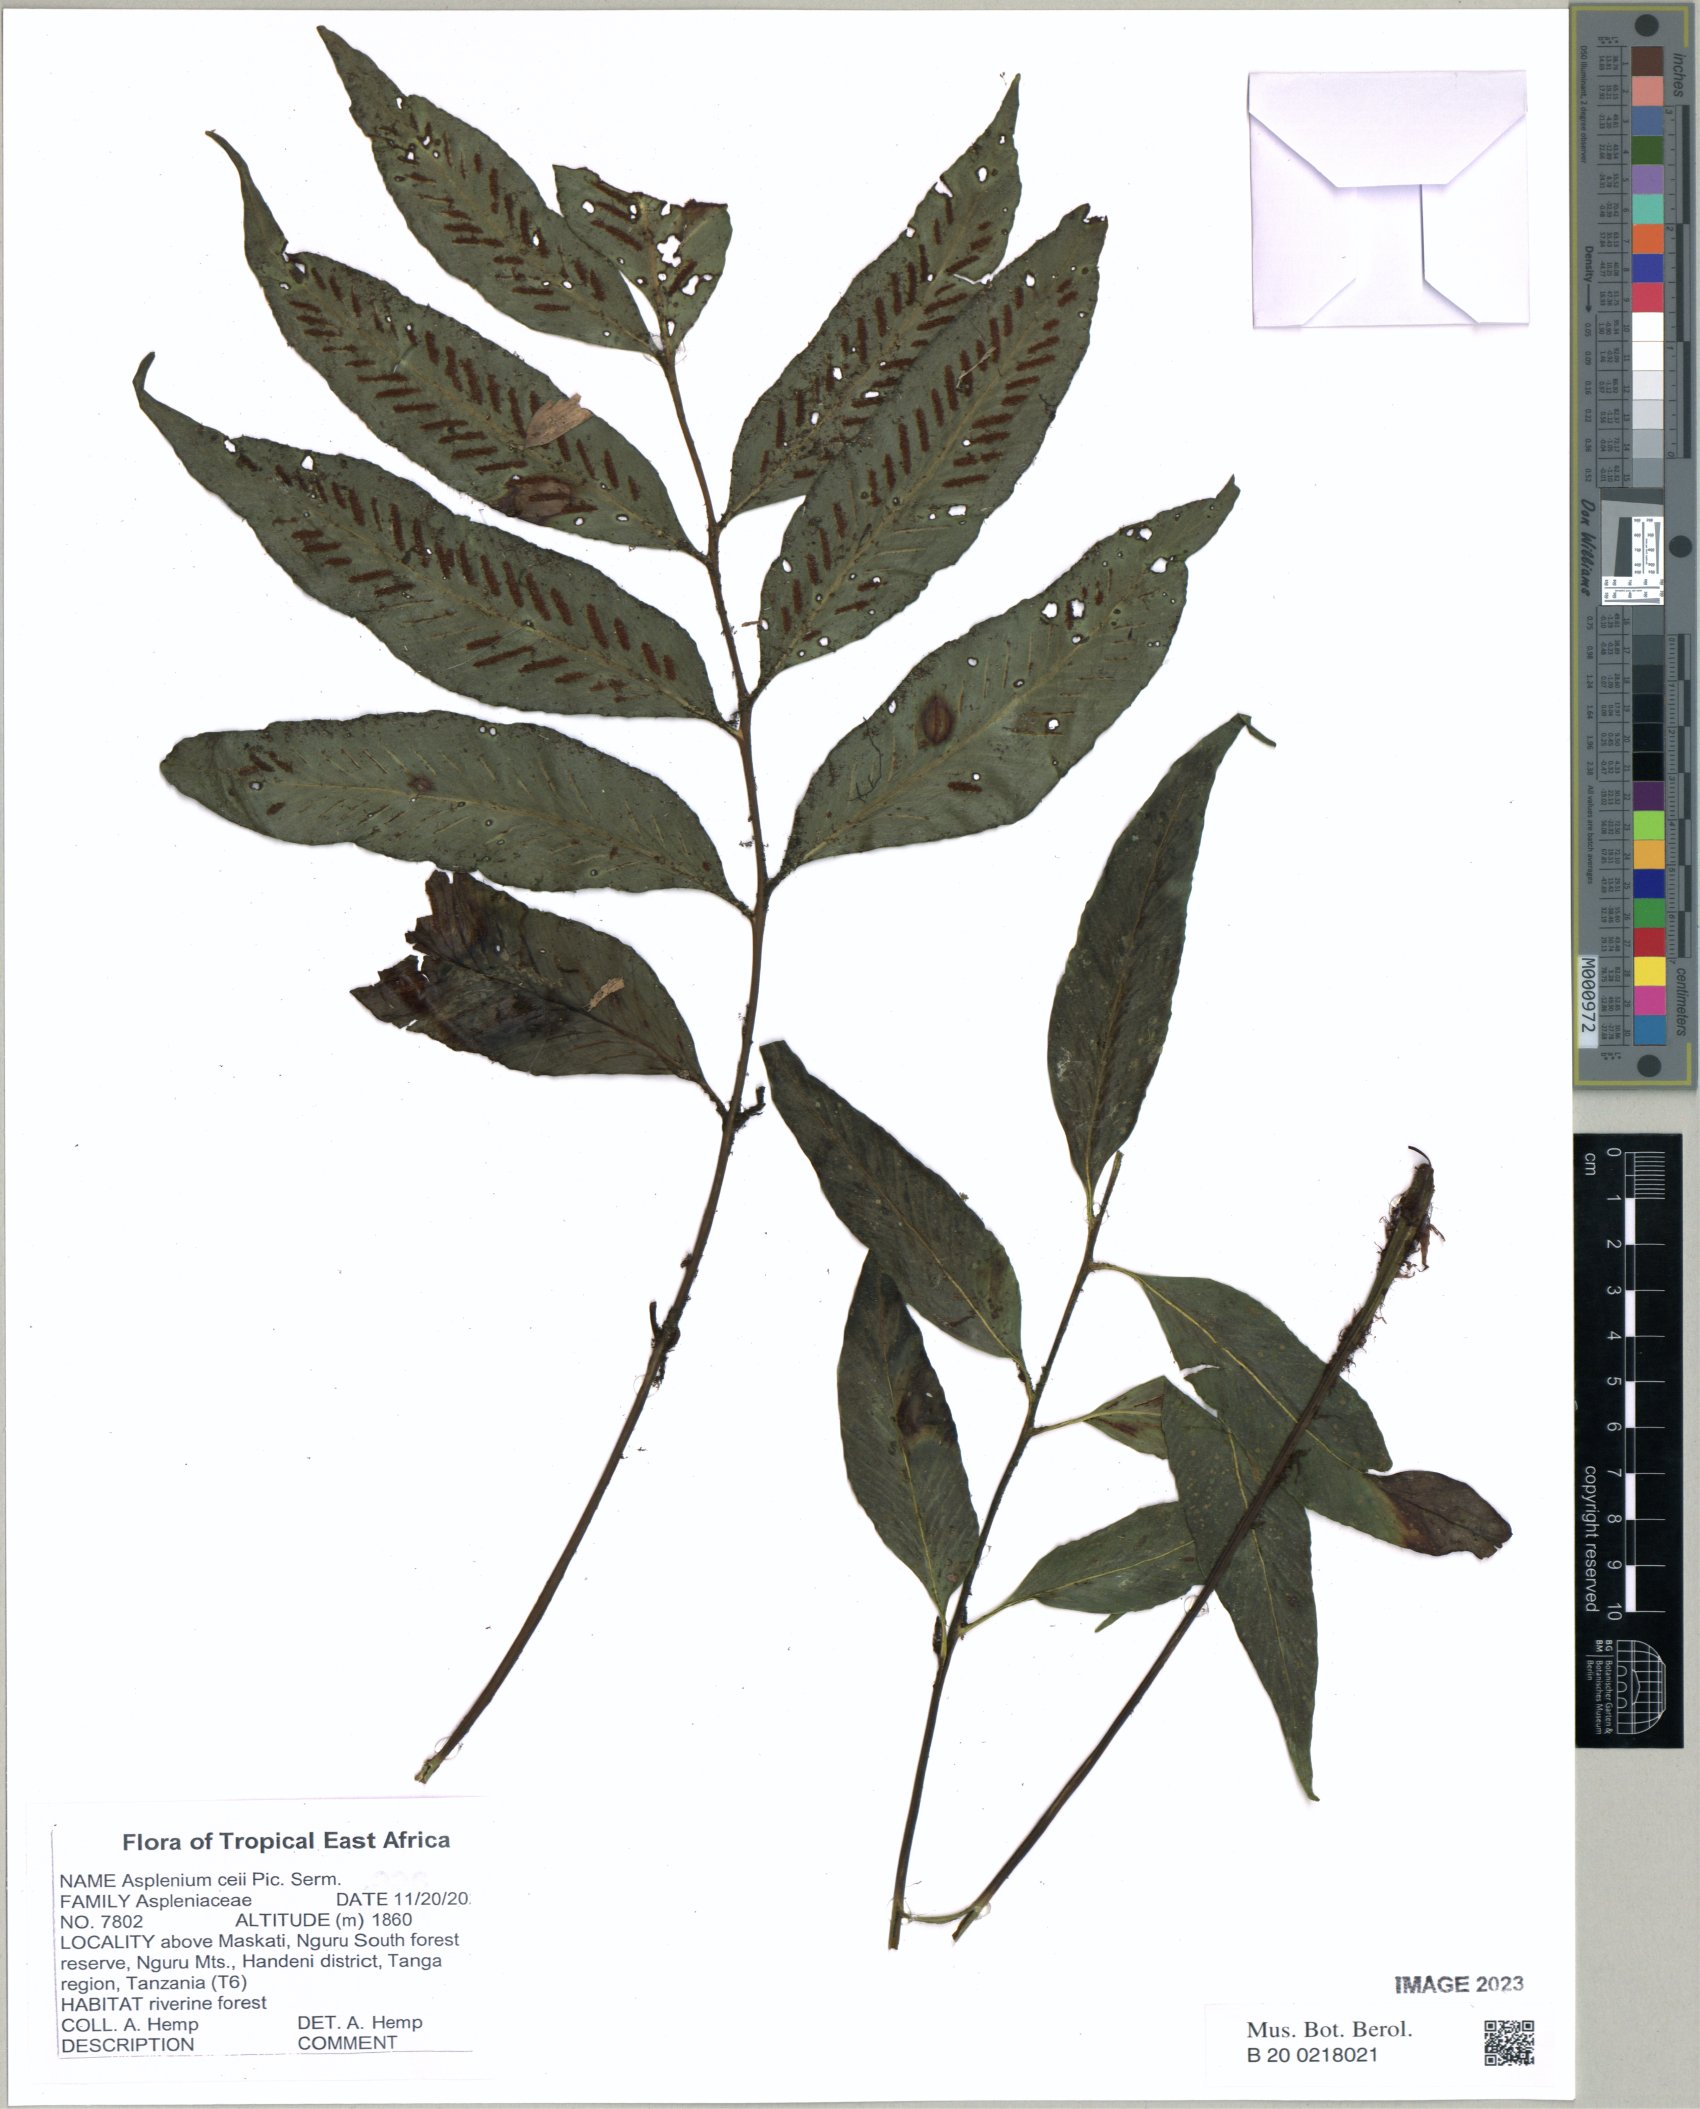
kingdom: Plantae
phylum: Tracheophyta
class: Polypodiopsida
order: Polypodiales
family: Aspleniaceae
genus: Asplenium
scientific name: Asplenium ceii
